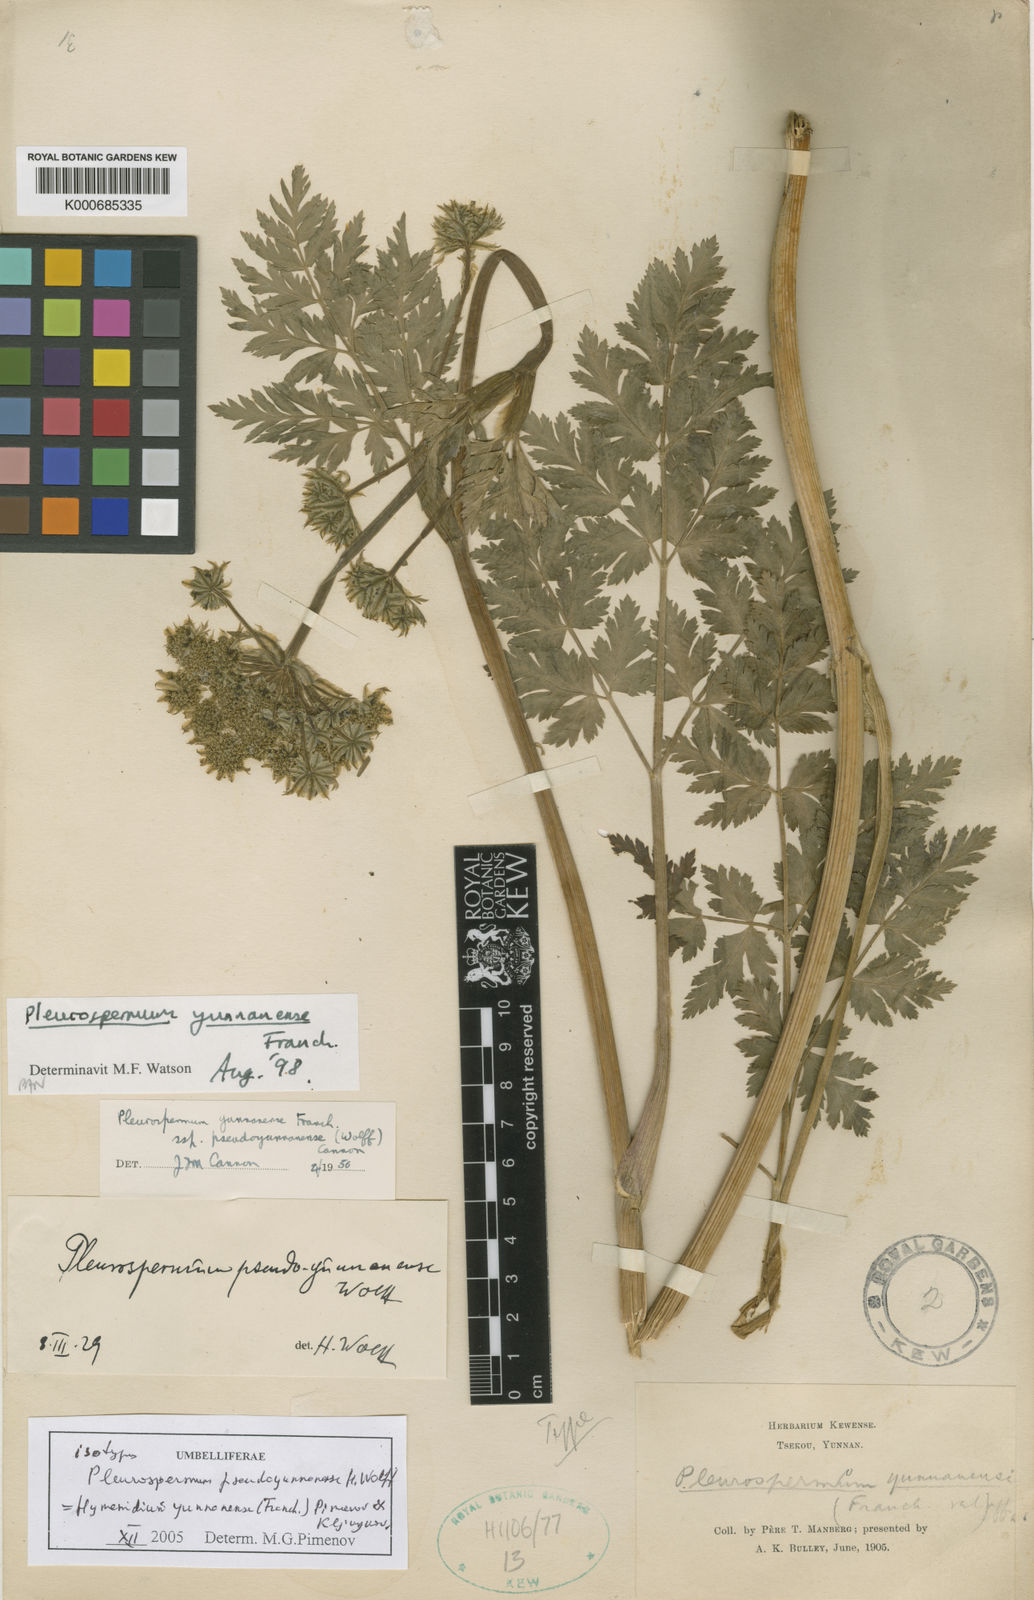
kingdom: Plantae
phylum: Tracheophyta
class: Magnoliopsida
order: Apiales
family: Apiaceae
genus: Pleurospermum
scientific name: Pleurospermum yunnanense
